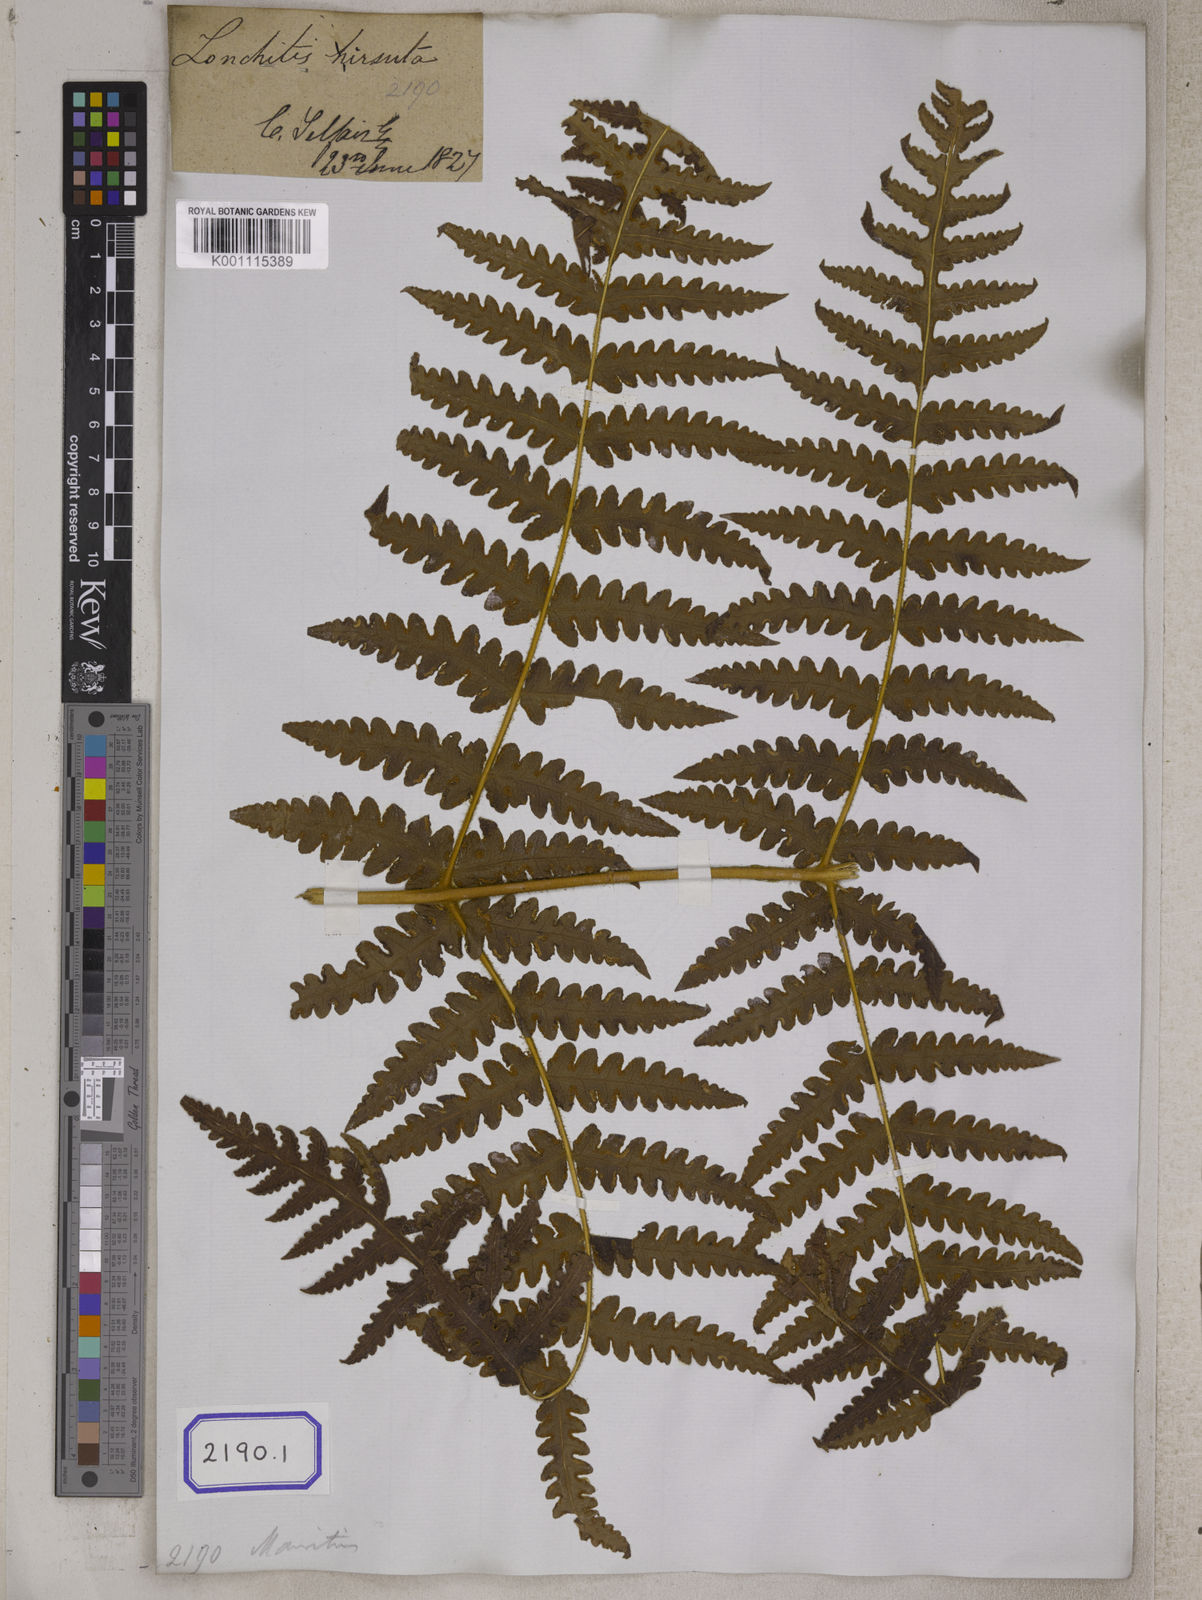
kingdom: Plantae
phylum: Tracheophyta
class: Polypodiopsida
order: Polypodiales
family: Lonchitidaceae
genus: Lonchitis
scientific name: Lonchitis hirsuta
